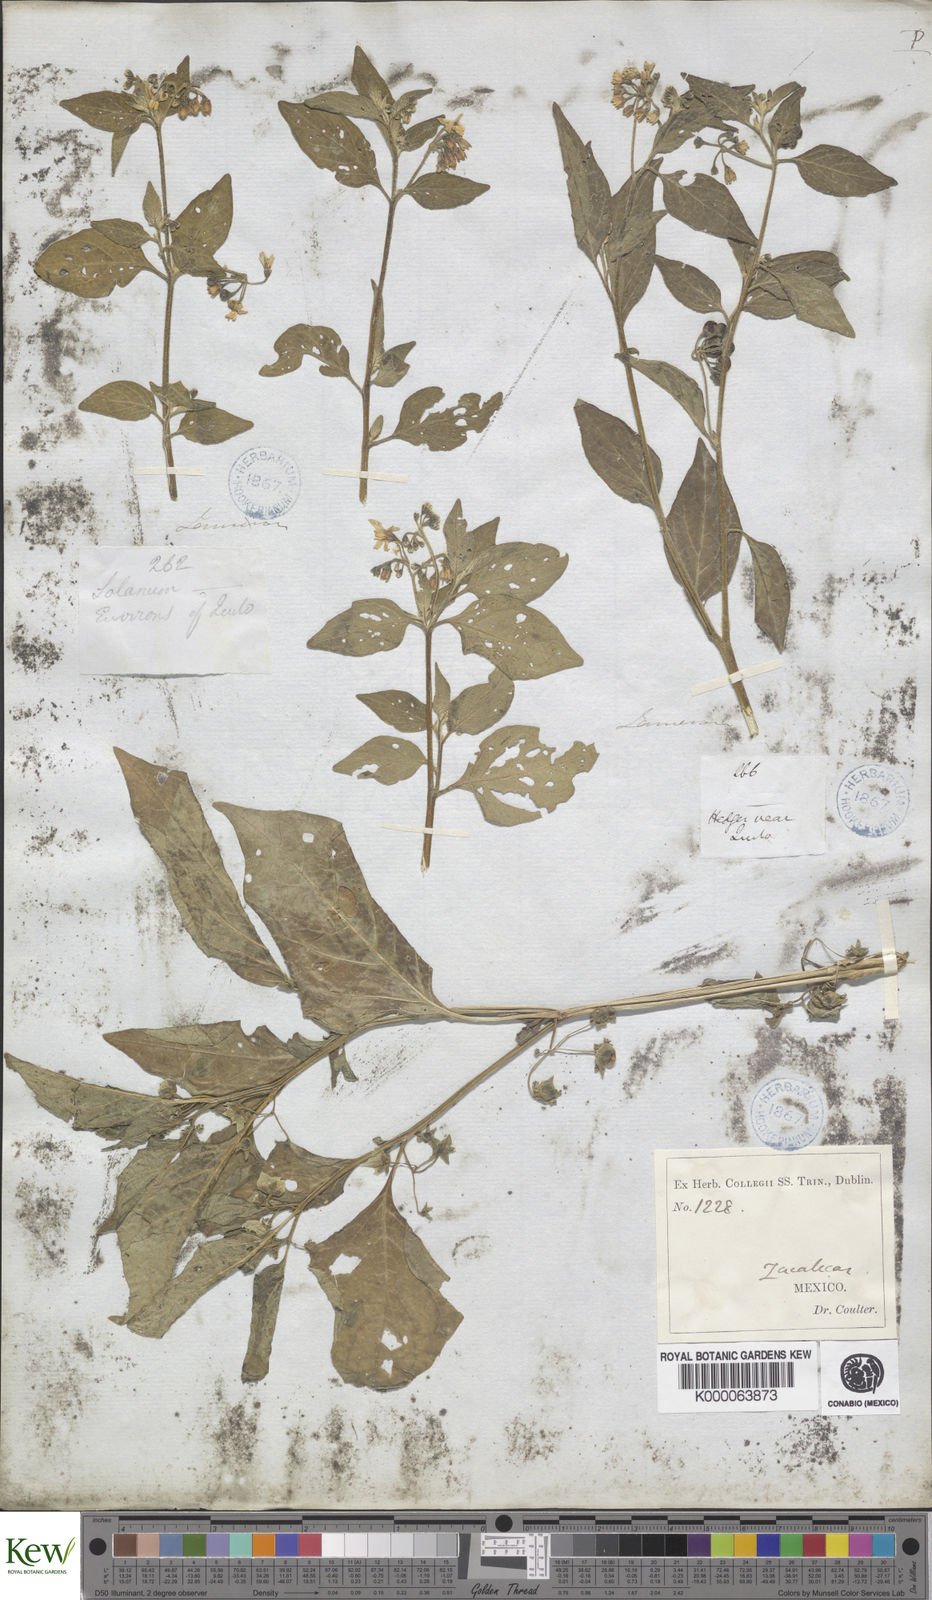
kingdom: Plantae
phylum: Tracheophyta
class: Magnoliopsida
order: Solanales
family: Solanaceae
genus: Solanum
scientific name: Solanum nigrum
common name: Black nightshade
